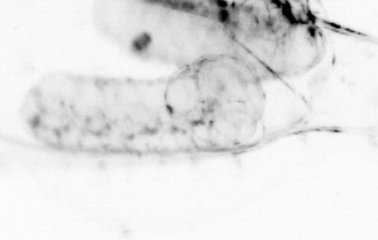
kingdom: Animalia
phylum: Chaetognatha
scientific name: Chaetognatha
